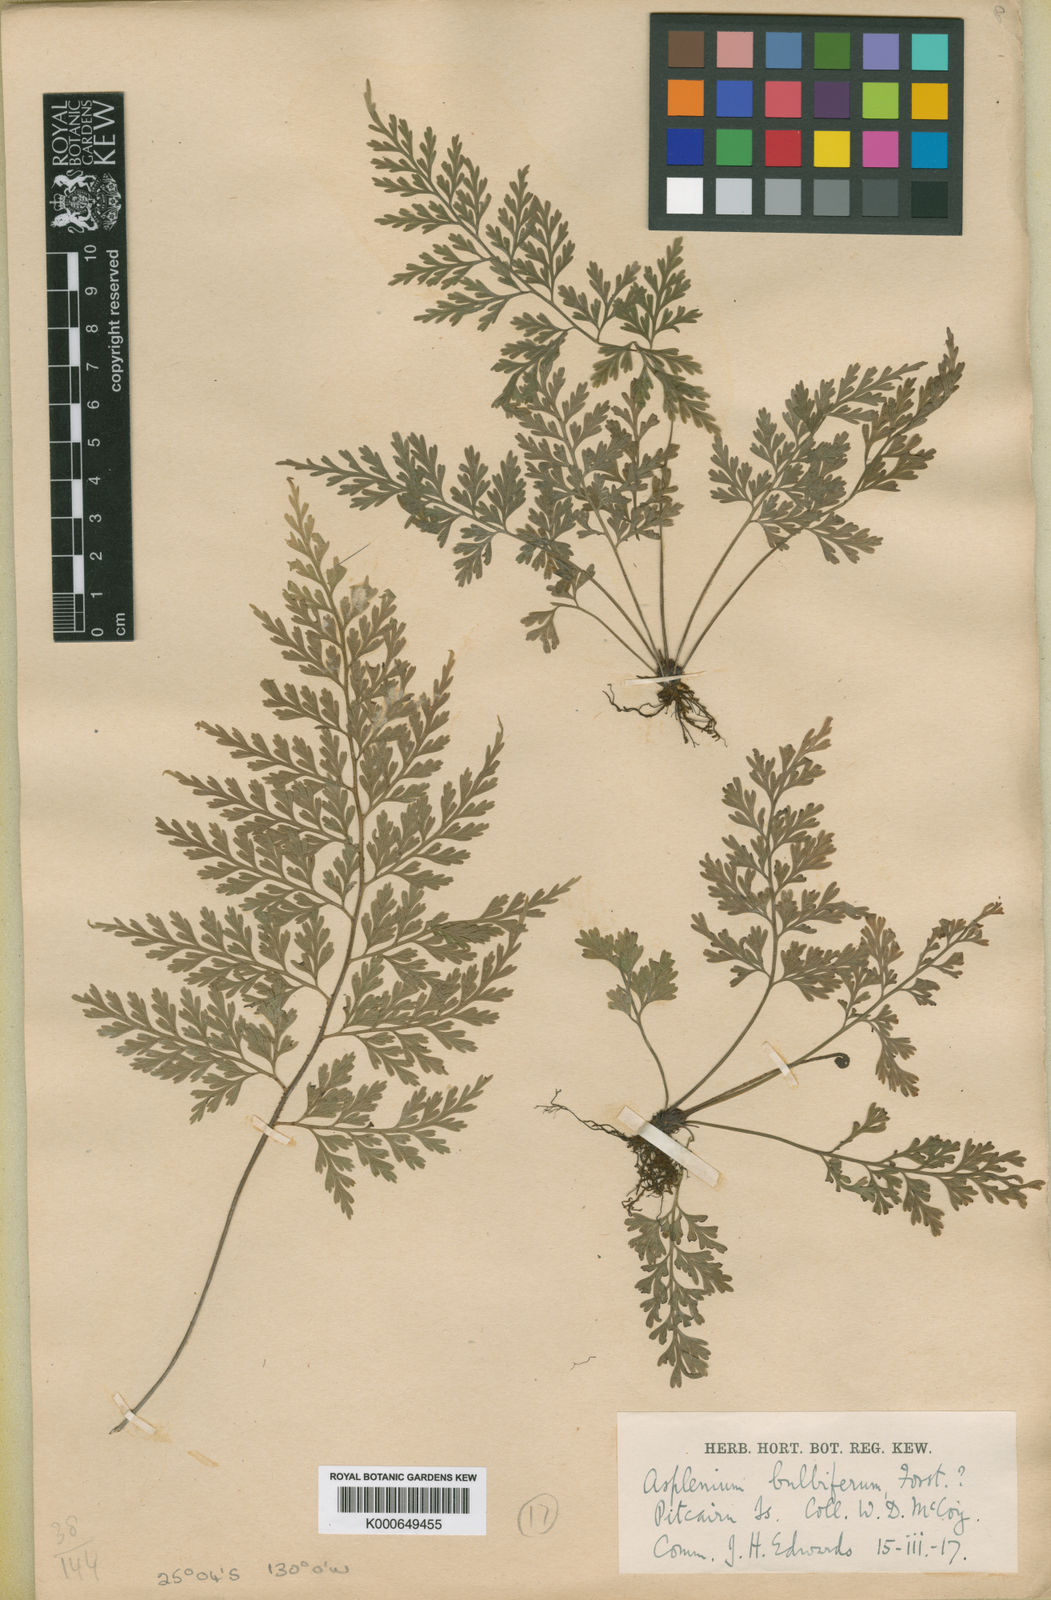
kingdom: Plantae
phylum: Tracheophyta
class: Polypodiopsida
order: Polypodiales
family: Aspleniaceae
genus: Asplenium
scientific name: Asplenium bulbiferum
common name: Mother fern
